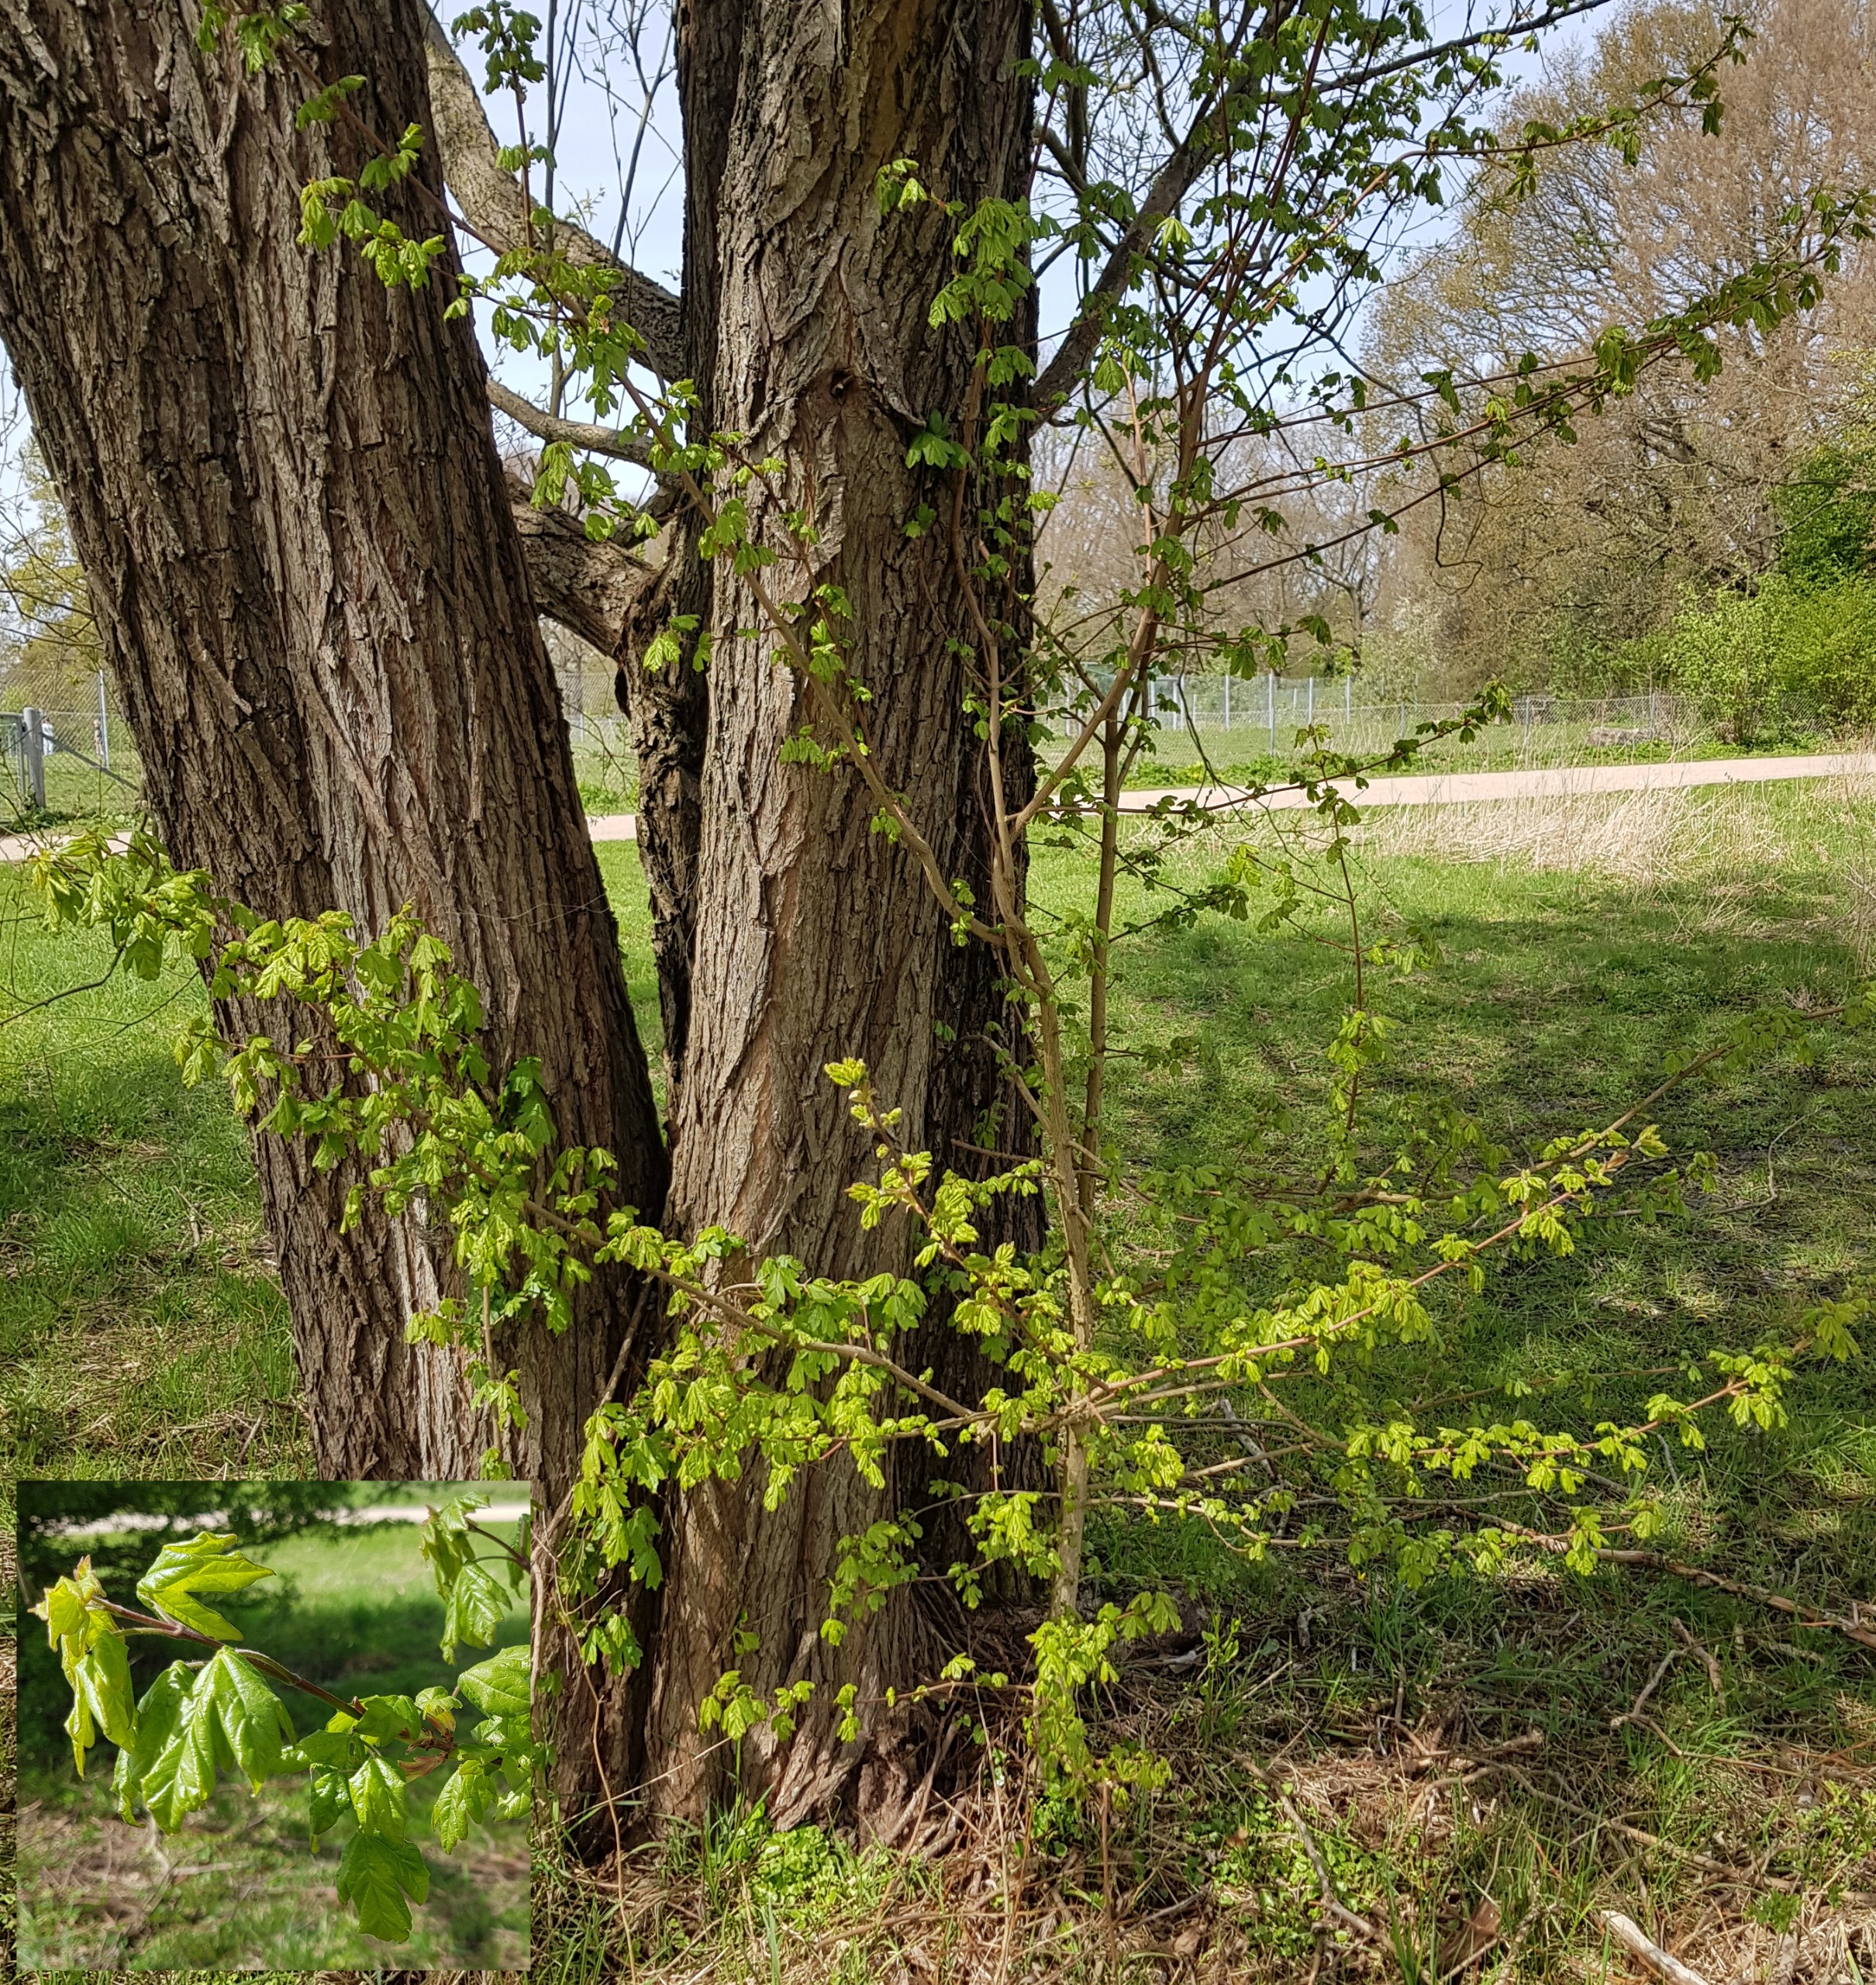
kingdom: Plantae
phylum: Tracheophyta
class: Magnoliopsida
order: Sapindales
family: Sapindaceae
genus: Acer
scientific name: Acer campestre
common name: Navr
